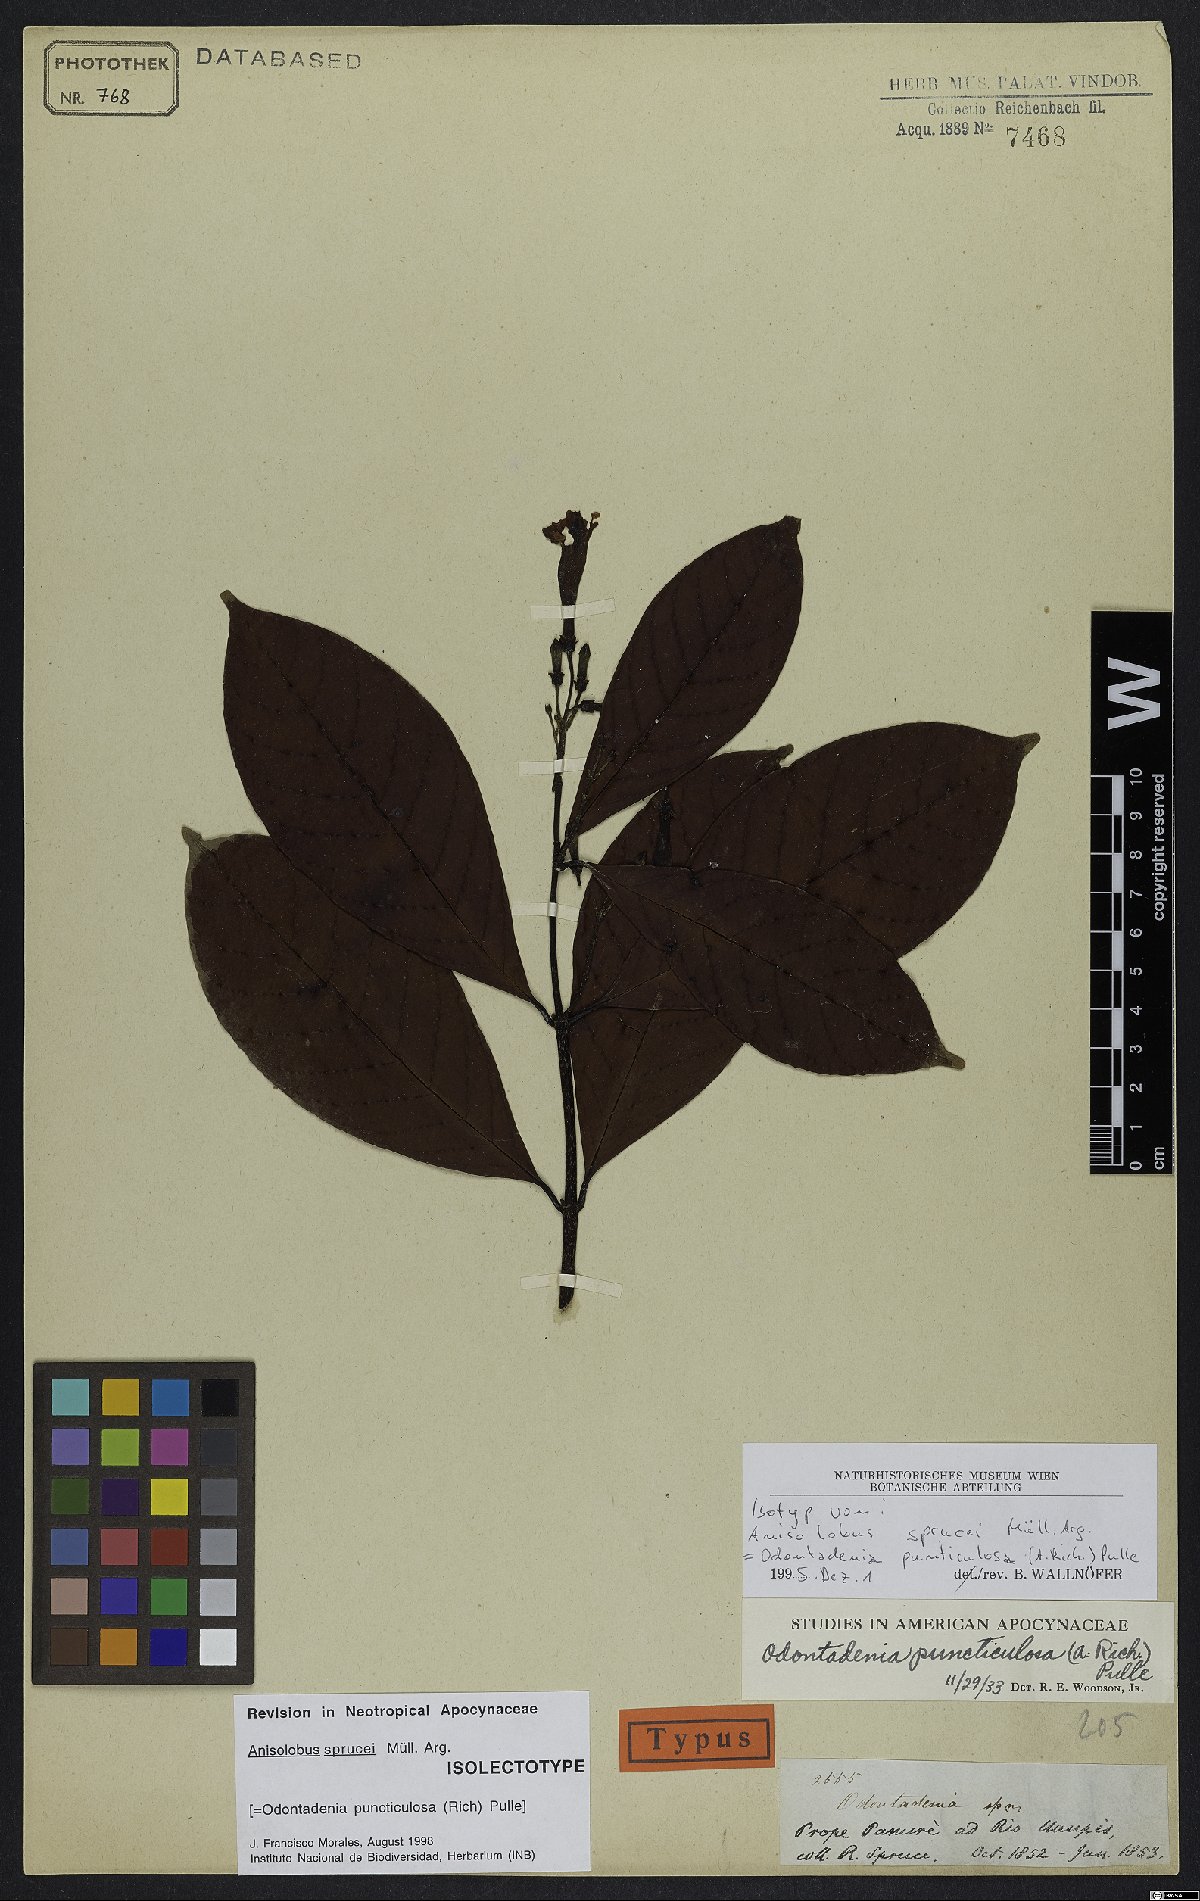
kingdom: Plantae
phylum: Tracheophyta
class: Magnoliopsida
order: Gentianales
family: Apocynaceae
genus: Odontadenia
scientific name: Odontadenia puncticulosa
